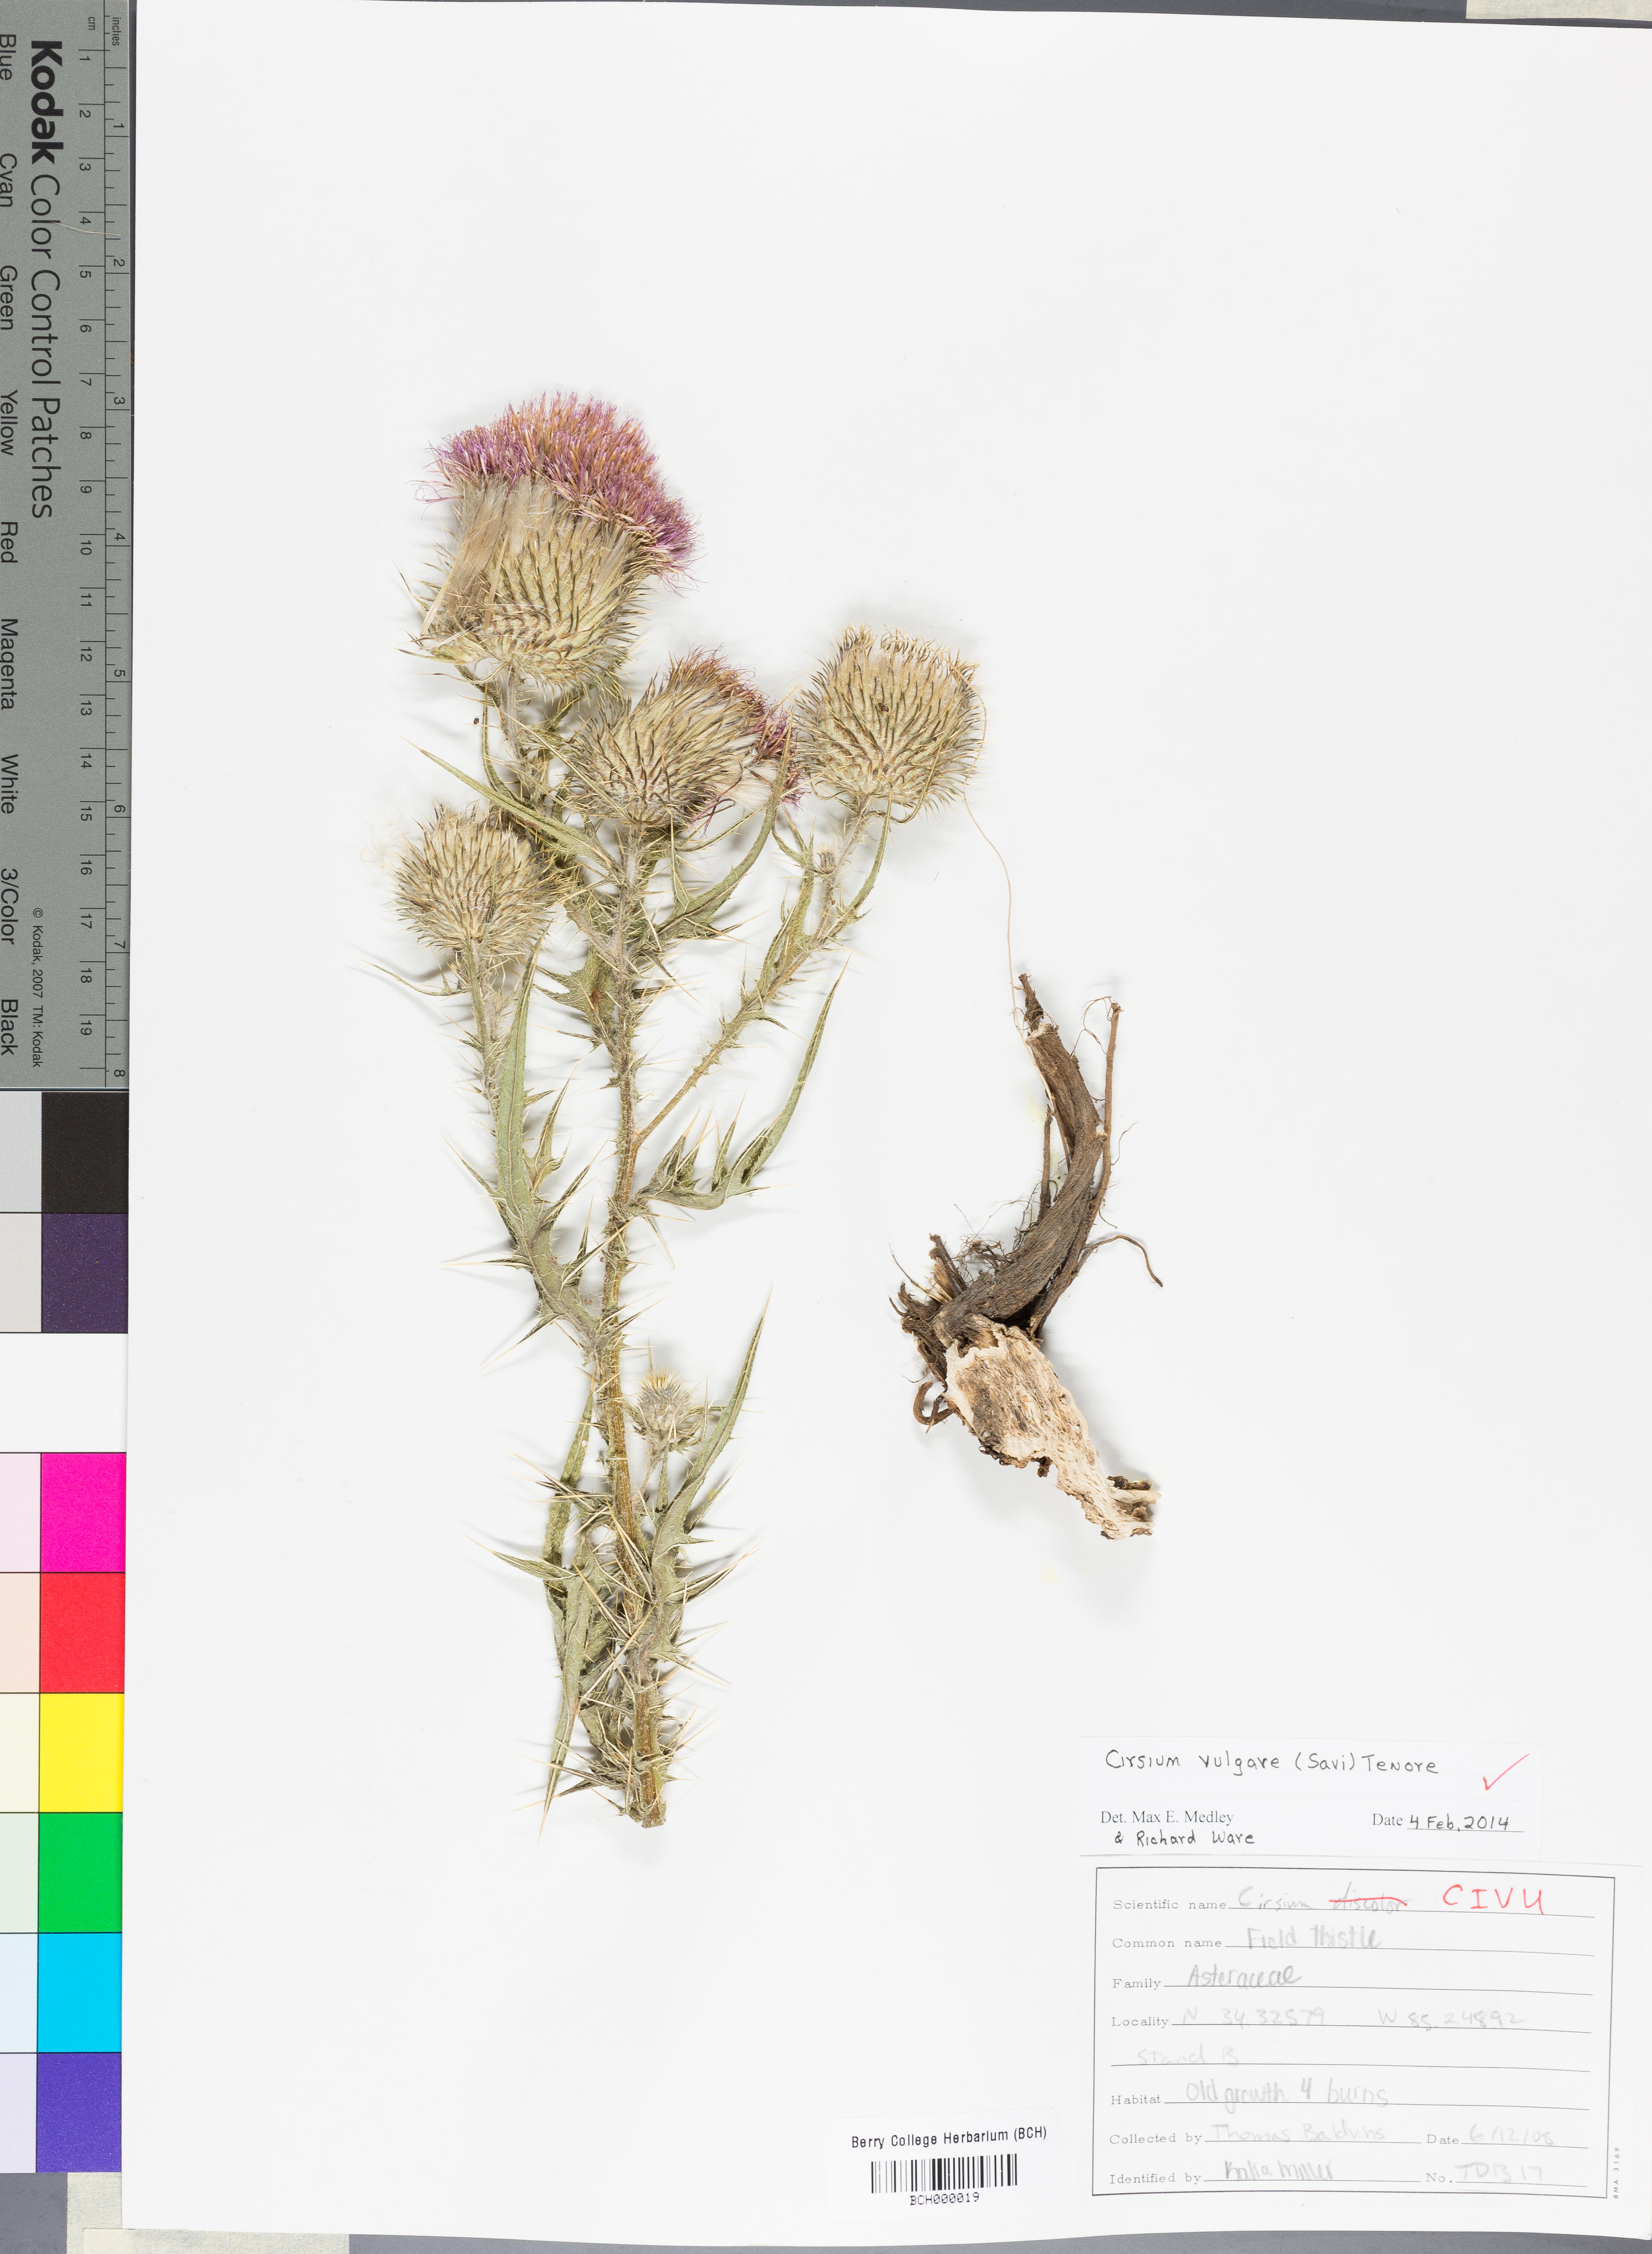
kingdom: Plantae
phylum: Tracheophyta
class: Magnoliopsida
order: Asterales
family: Asteraceae
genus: Cirsium
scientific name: Cirsium vulgare
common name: Bull thistle
